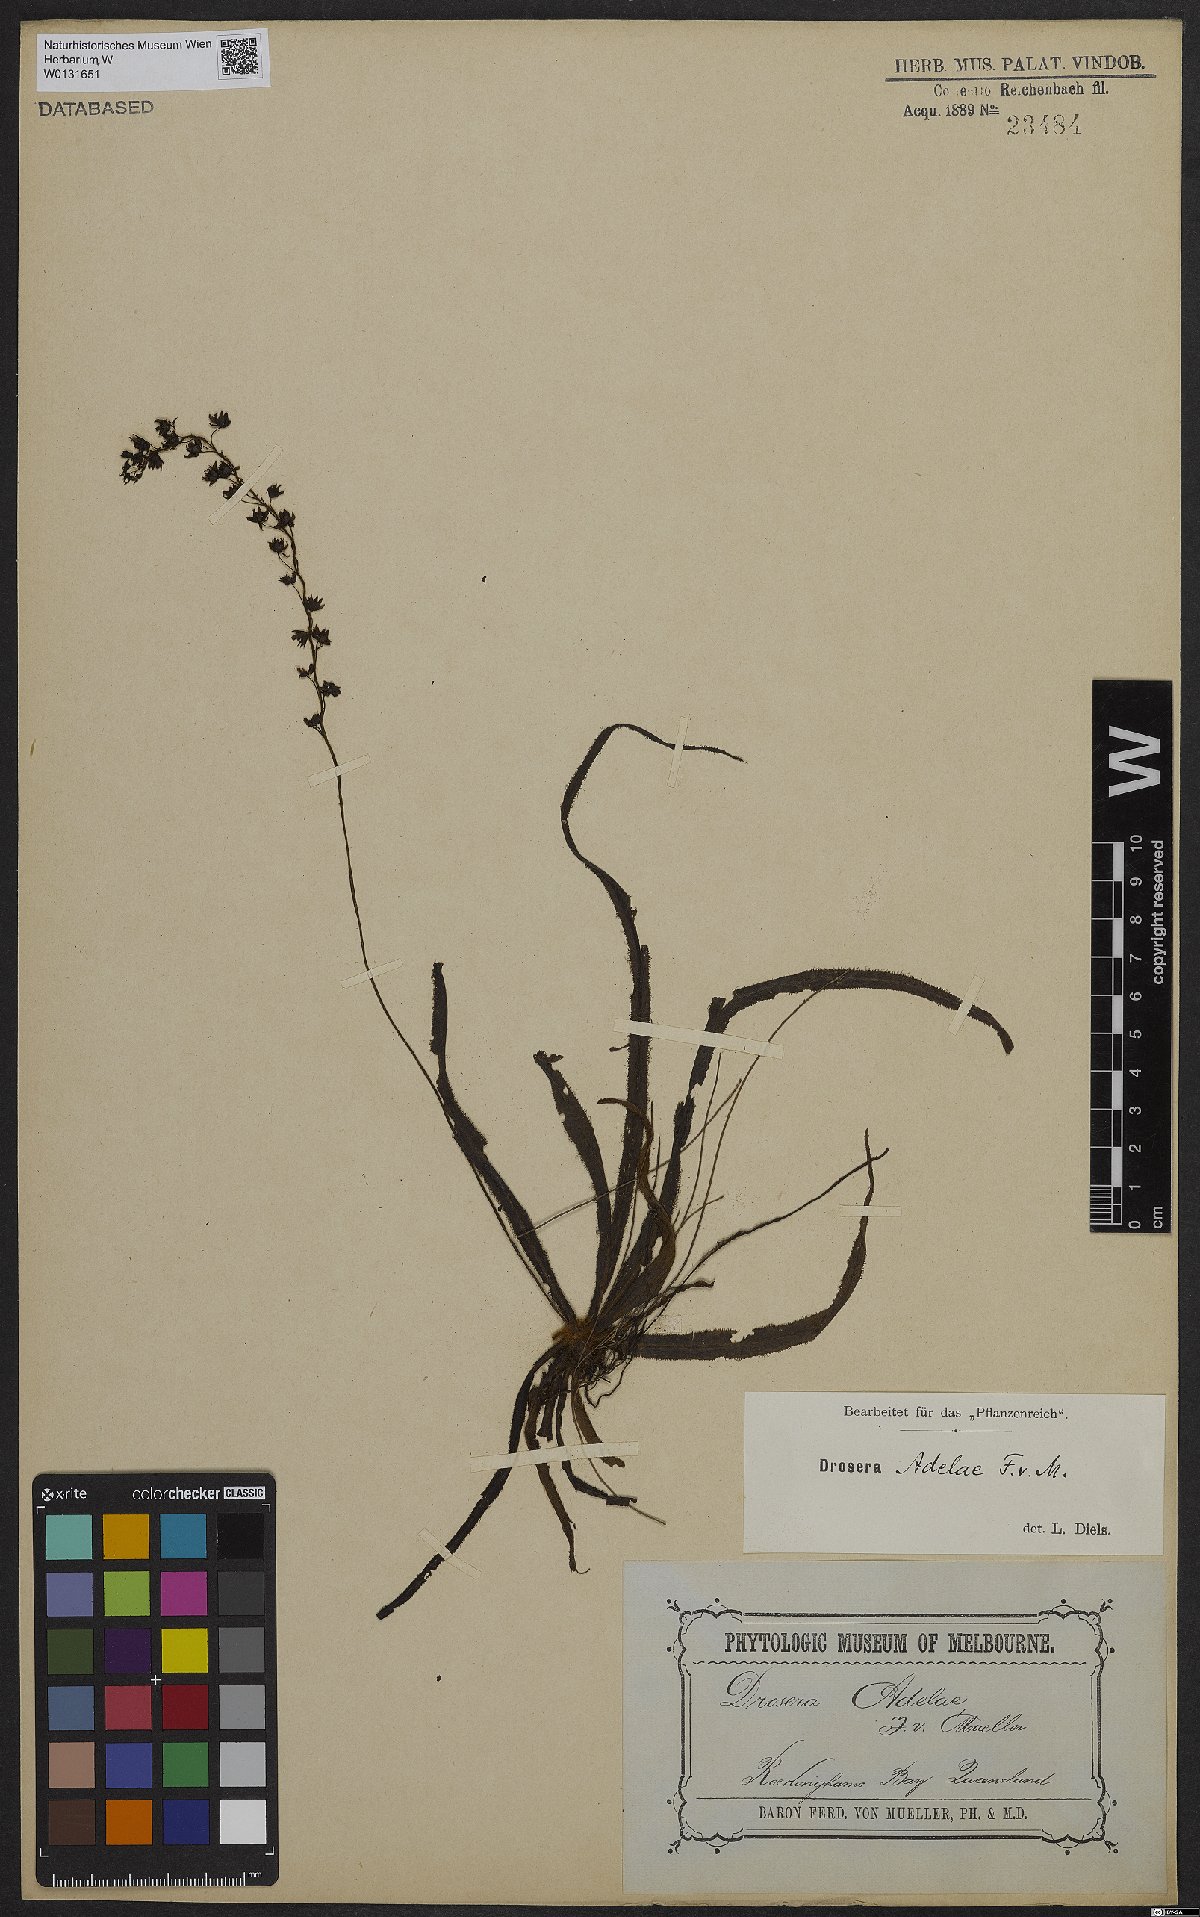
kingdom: Plantae
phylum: Tracheophyta
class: Magnoliopsida
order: Caryophyllales
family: Droseraceae
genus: Drosera
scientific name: Drosera adelae
